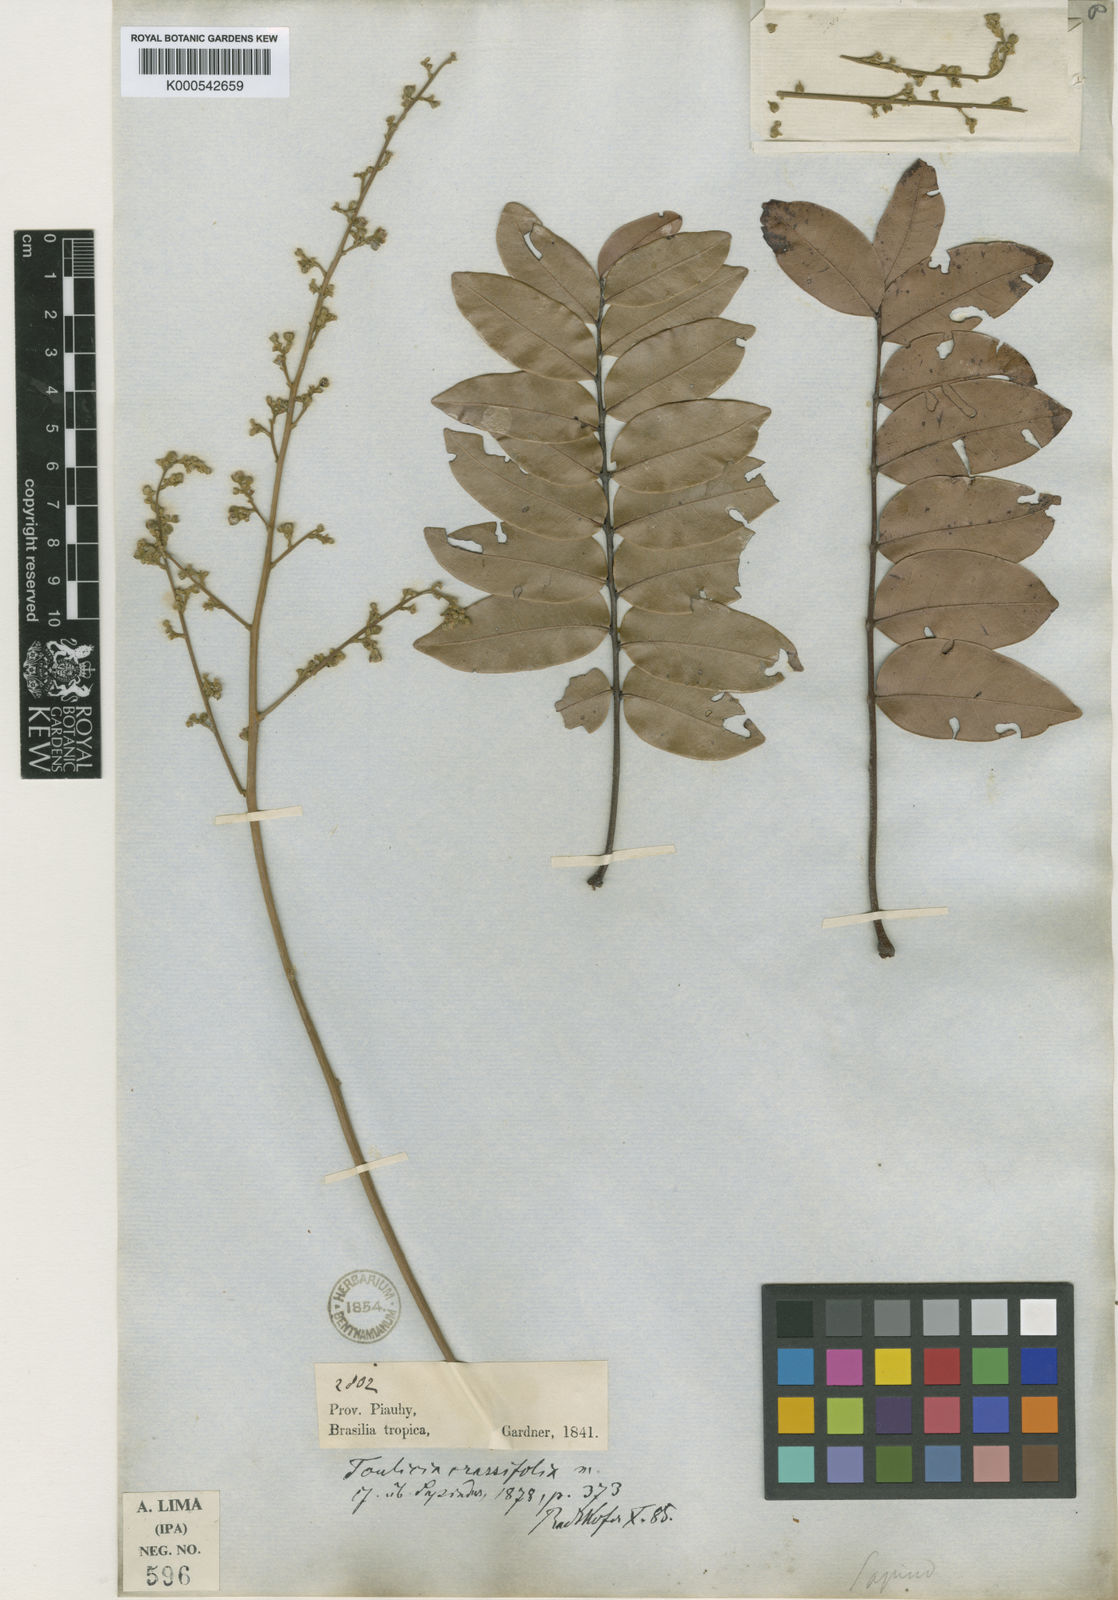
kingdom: Plantae
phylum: Tracheophyta
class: Magnoliopsida
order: Sapindales
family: Sapindaceae
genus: Toulicia
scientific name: Toulicia crassifolia
